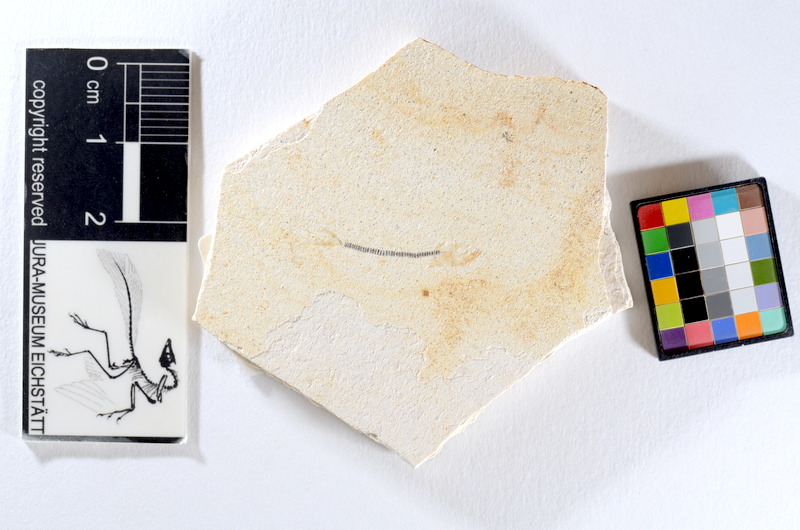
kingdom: Animalia
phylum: Chordata
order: Salmoniformes
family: Orthogonikleithridae
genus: Orthogonikleithrus
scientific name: Orthogonikleithrus hoelli
